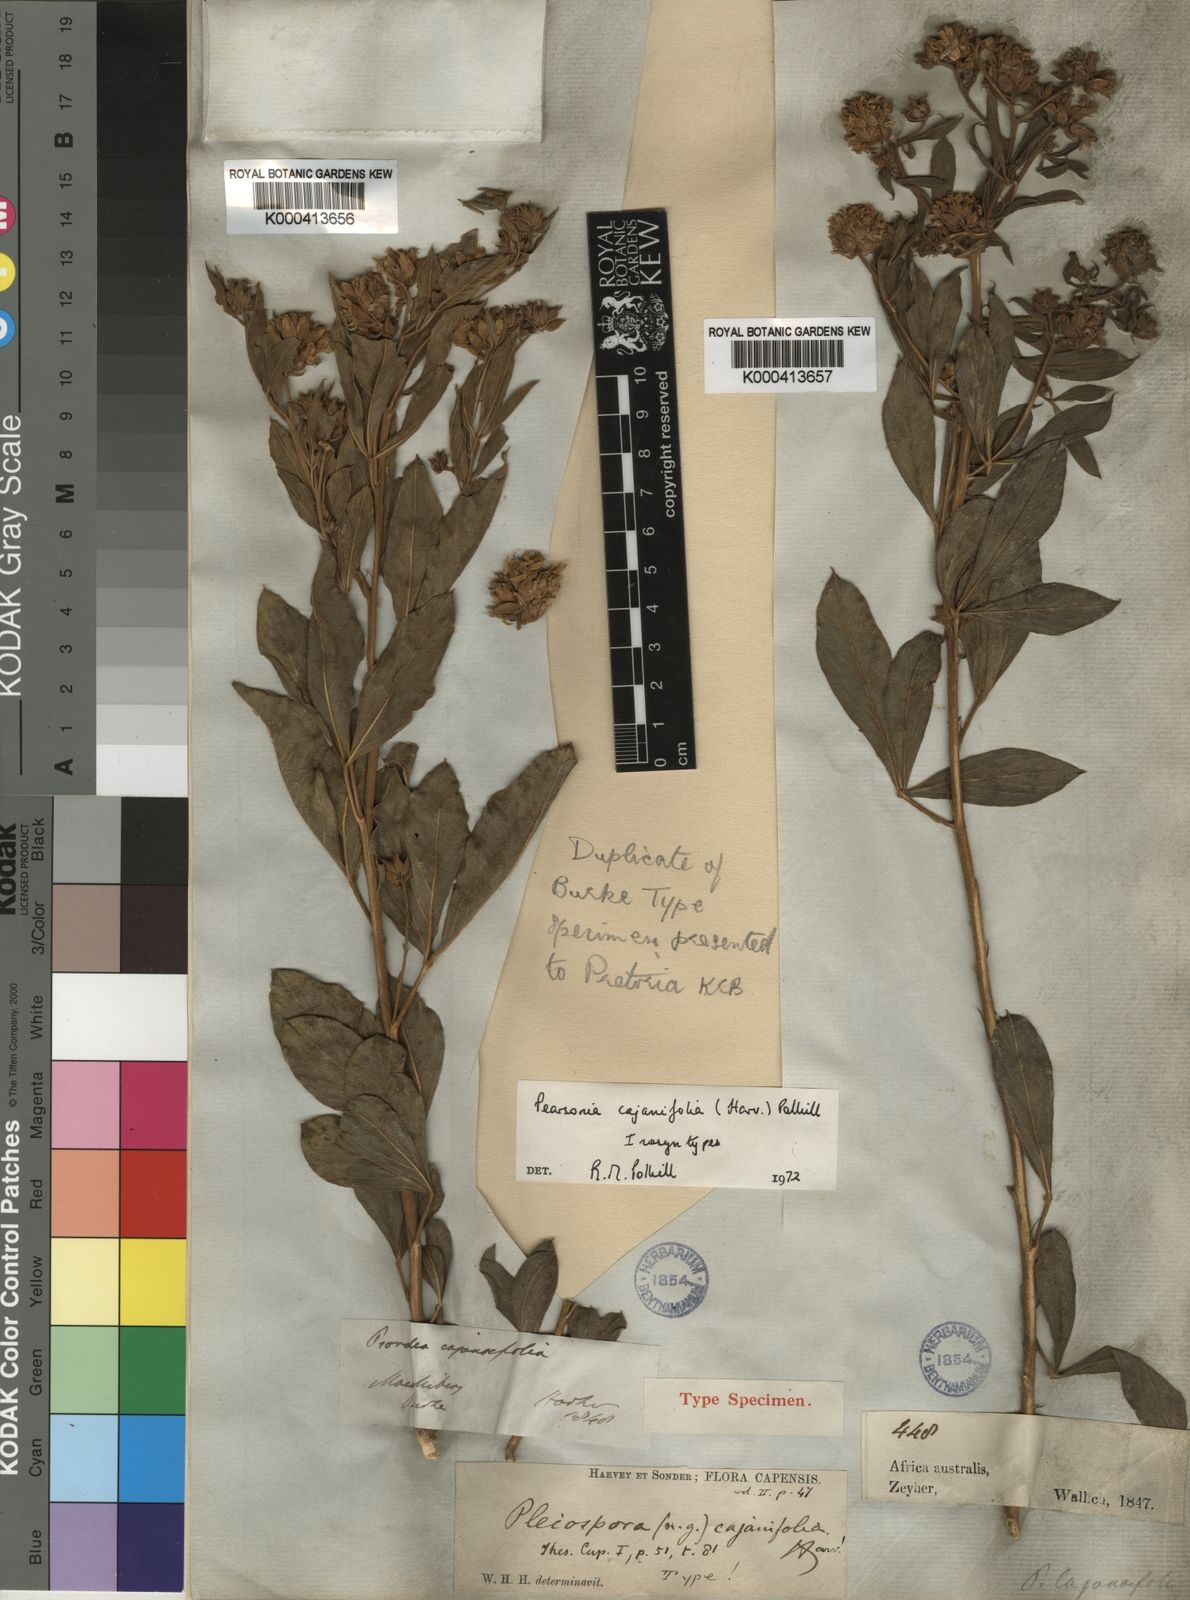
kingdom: Plantae
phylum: Tracheophyta
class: Magnoliopsida
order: Fabales
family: Fabaceae
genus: Pearsonia
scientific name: Pearsonia cajanifolia
